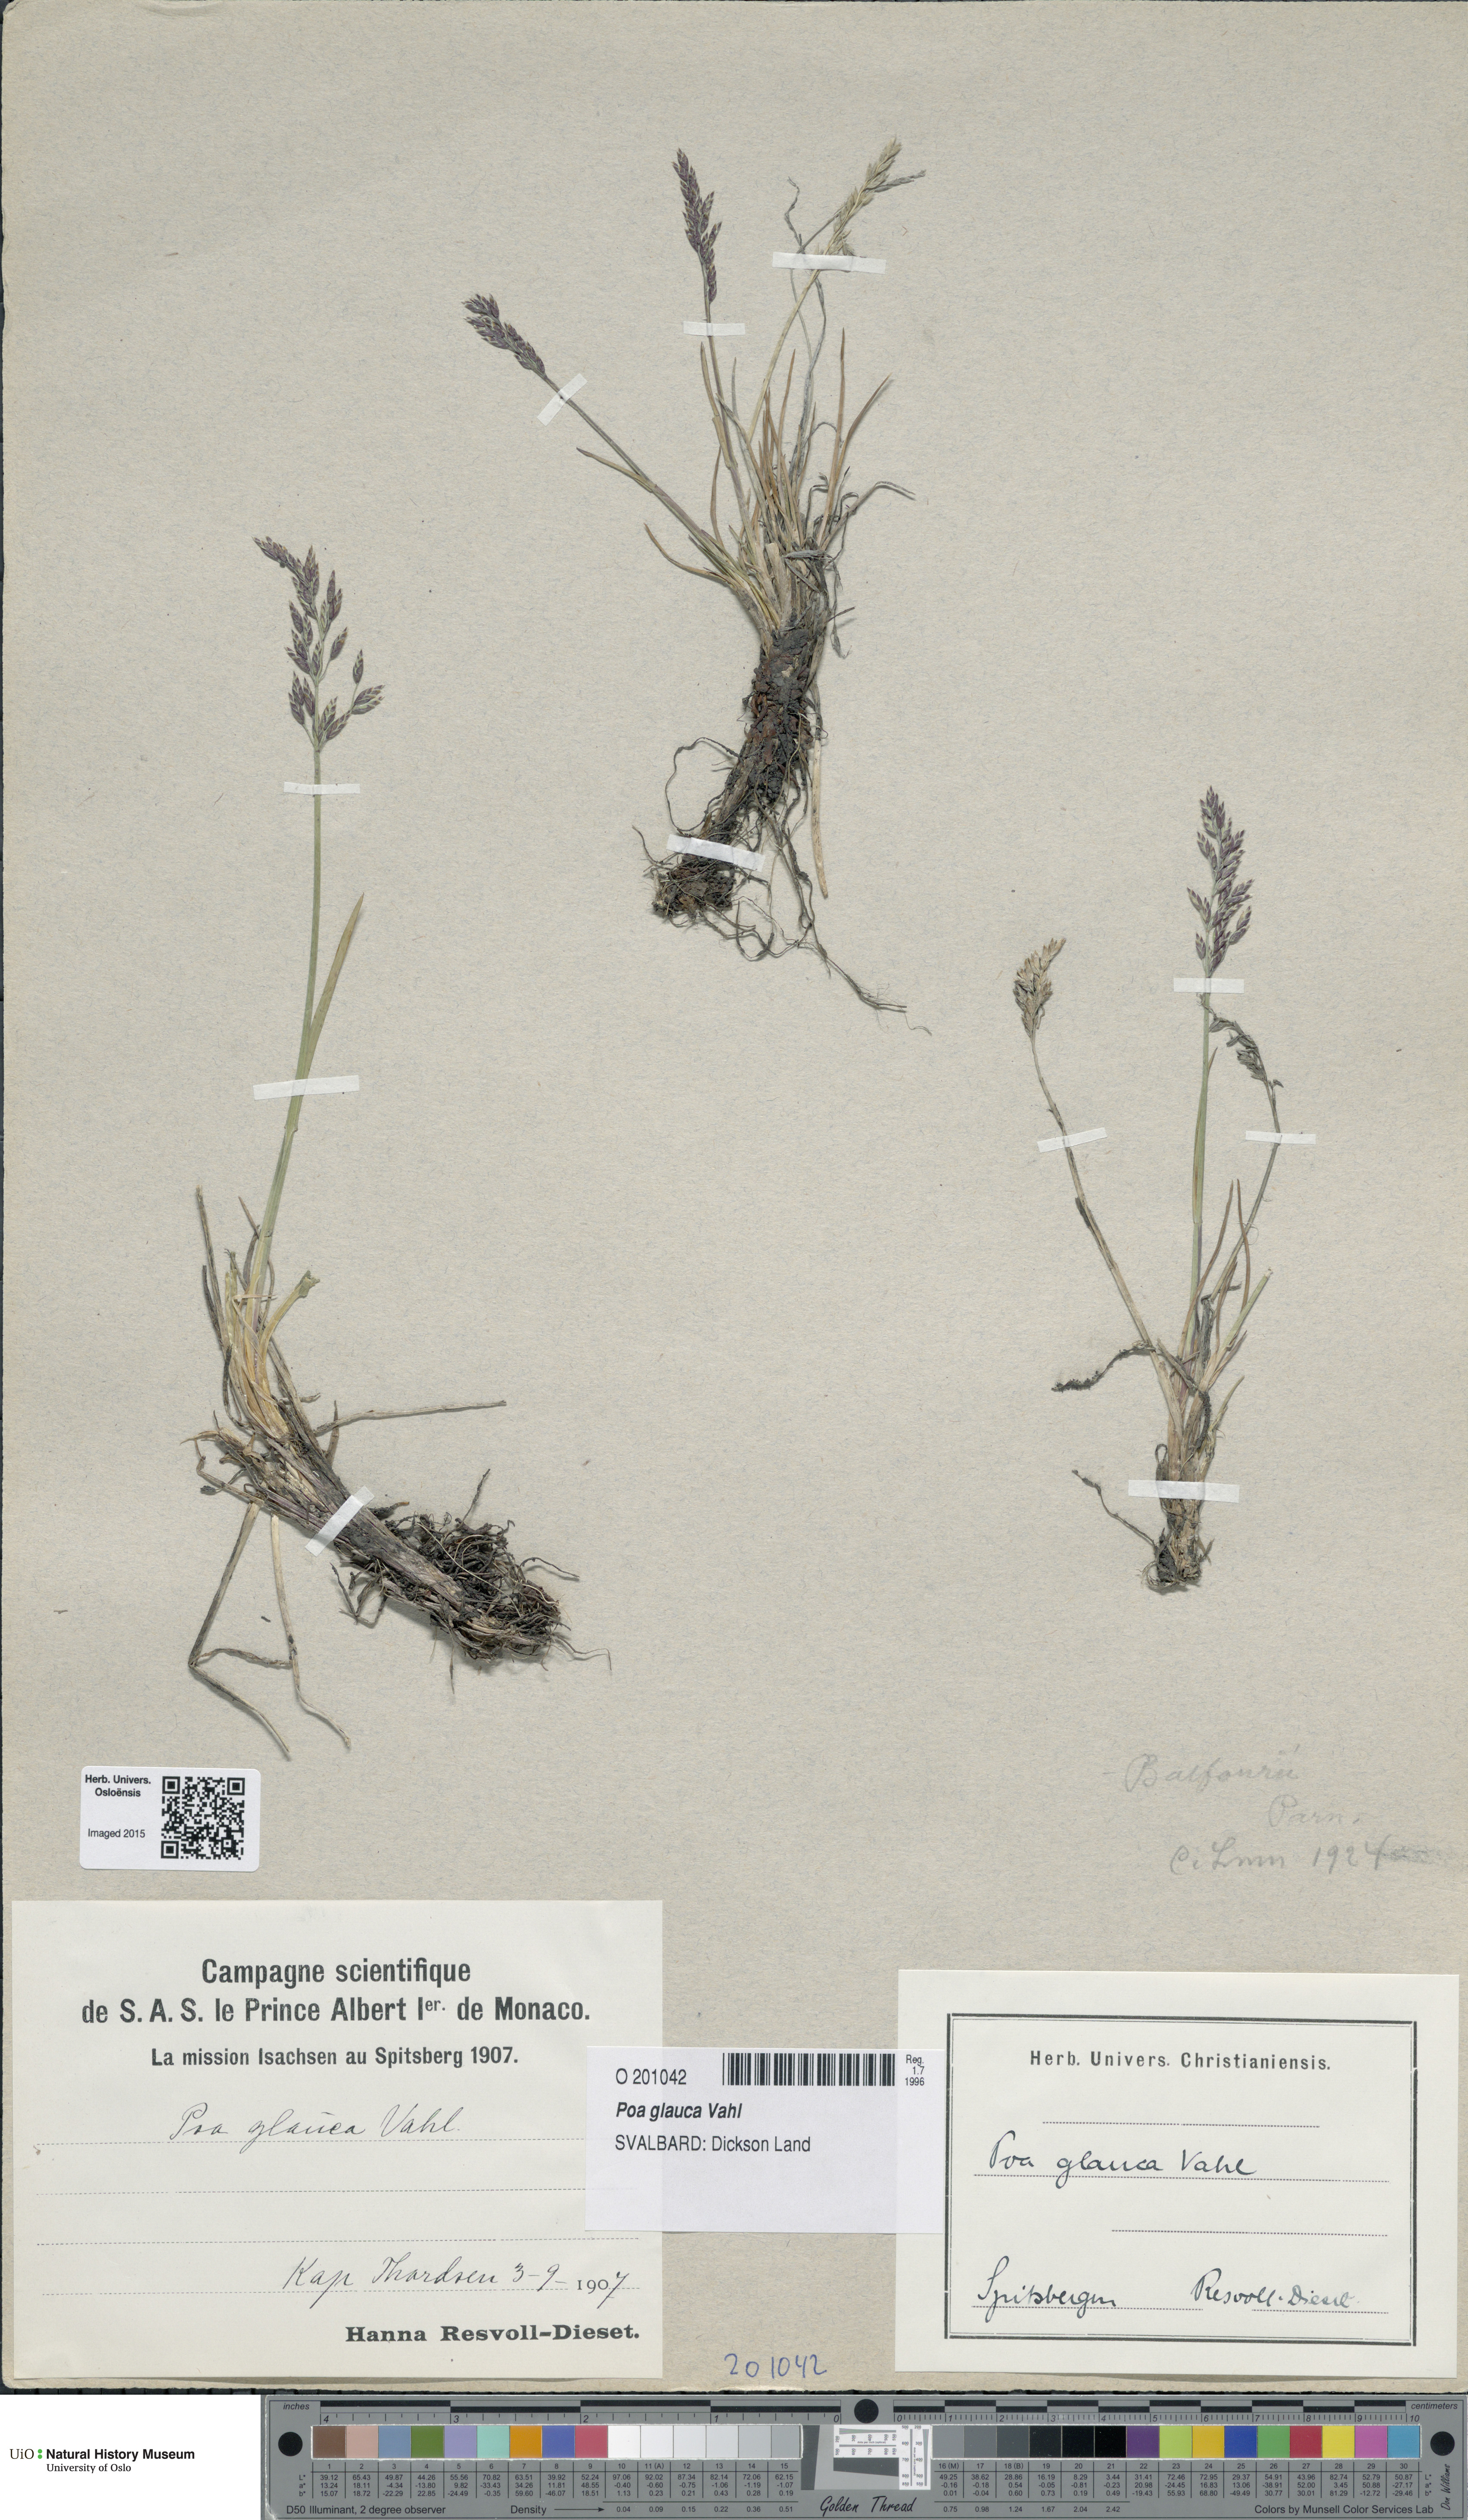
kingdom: Plantae
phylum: Tracheophyta
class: Liliopsida
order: Poales
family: Poaceae
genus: Poa
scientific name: Poa glauca
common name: Glaucous bluegrass
